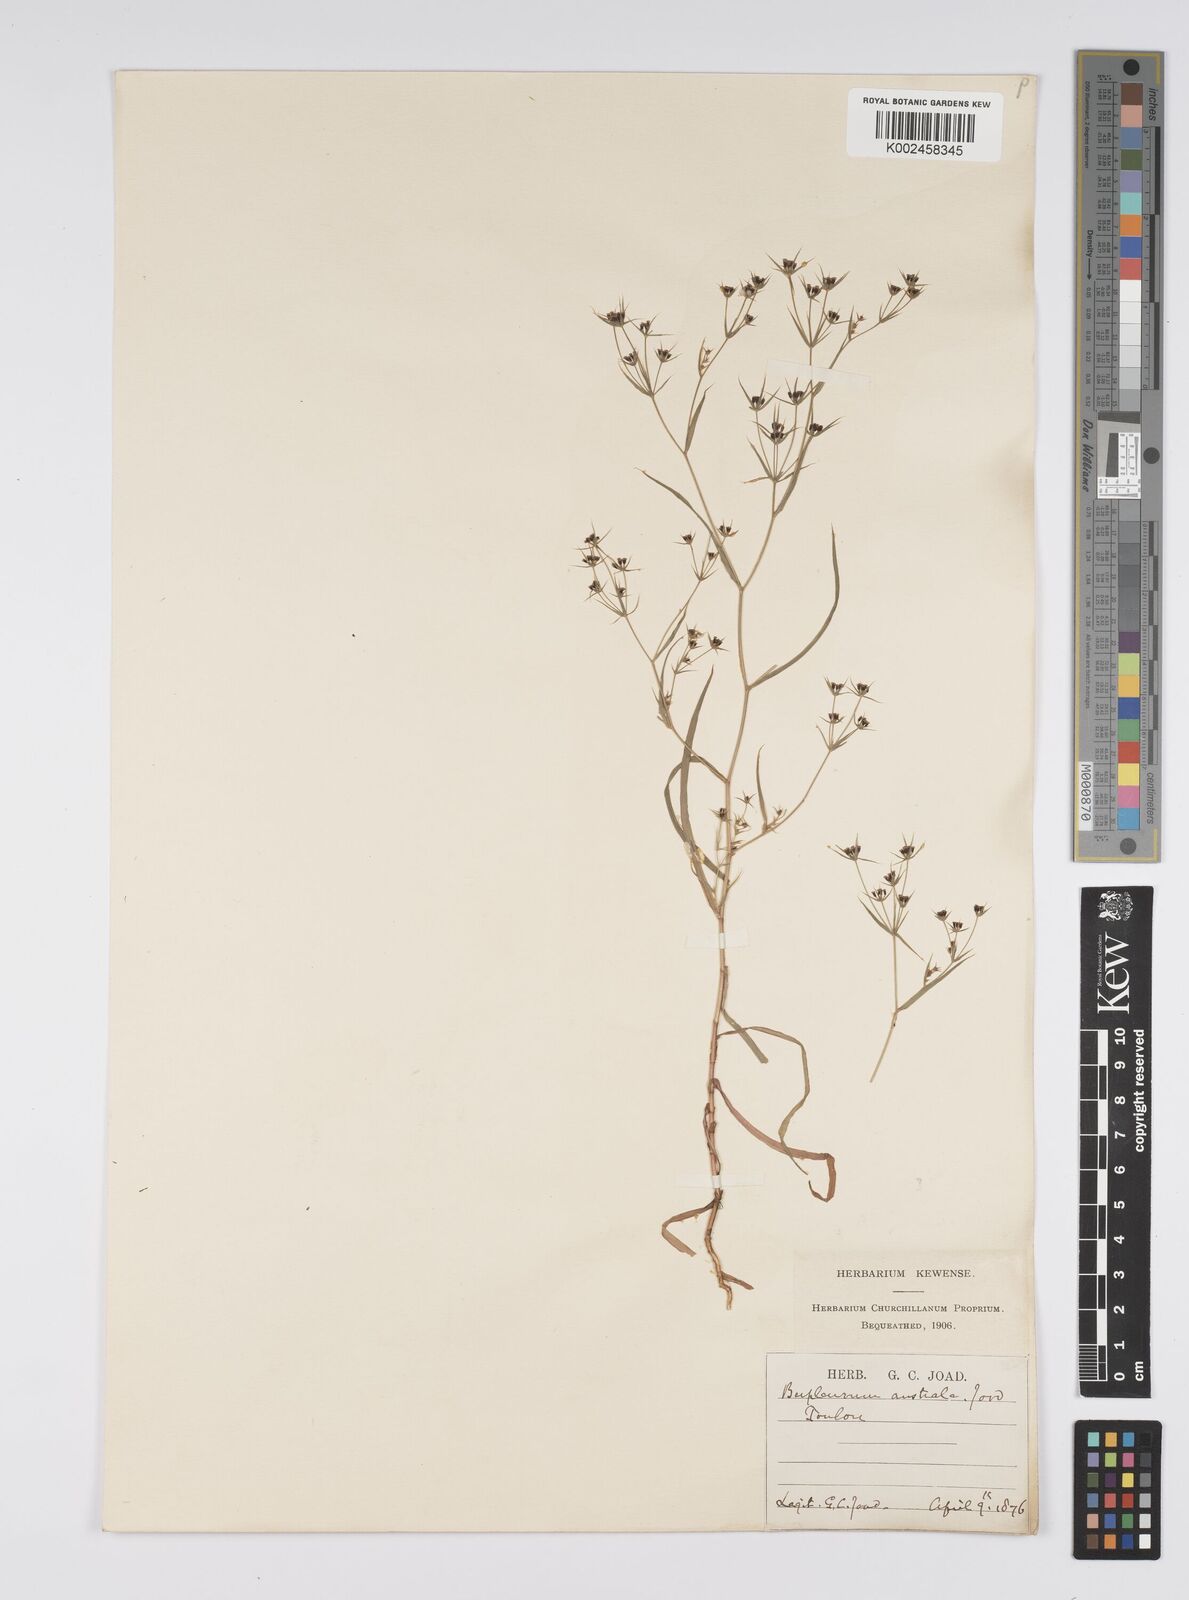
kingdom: Plantae
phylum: Tracheophyta
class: Magnoliopsida
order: Apiales
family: Apiaceae
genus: Bupleurum
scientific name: Bupleurum gerardi
